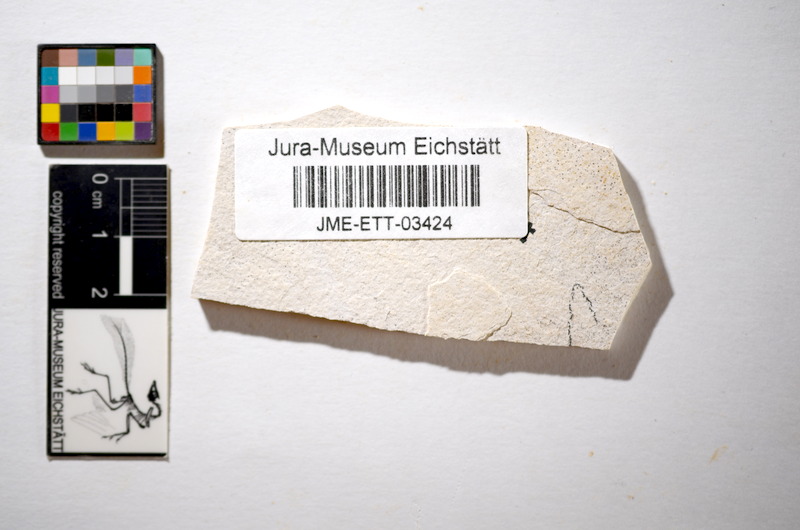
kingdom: Animalia
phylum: Chordata
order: Salmoniformes
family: Orthogonikleithridae
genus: Orthogonikleithrus
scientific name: Orthogonikleithrus hoelli
